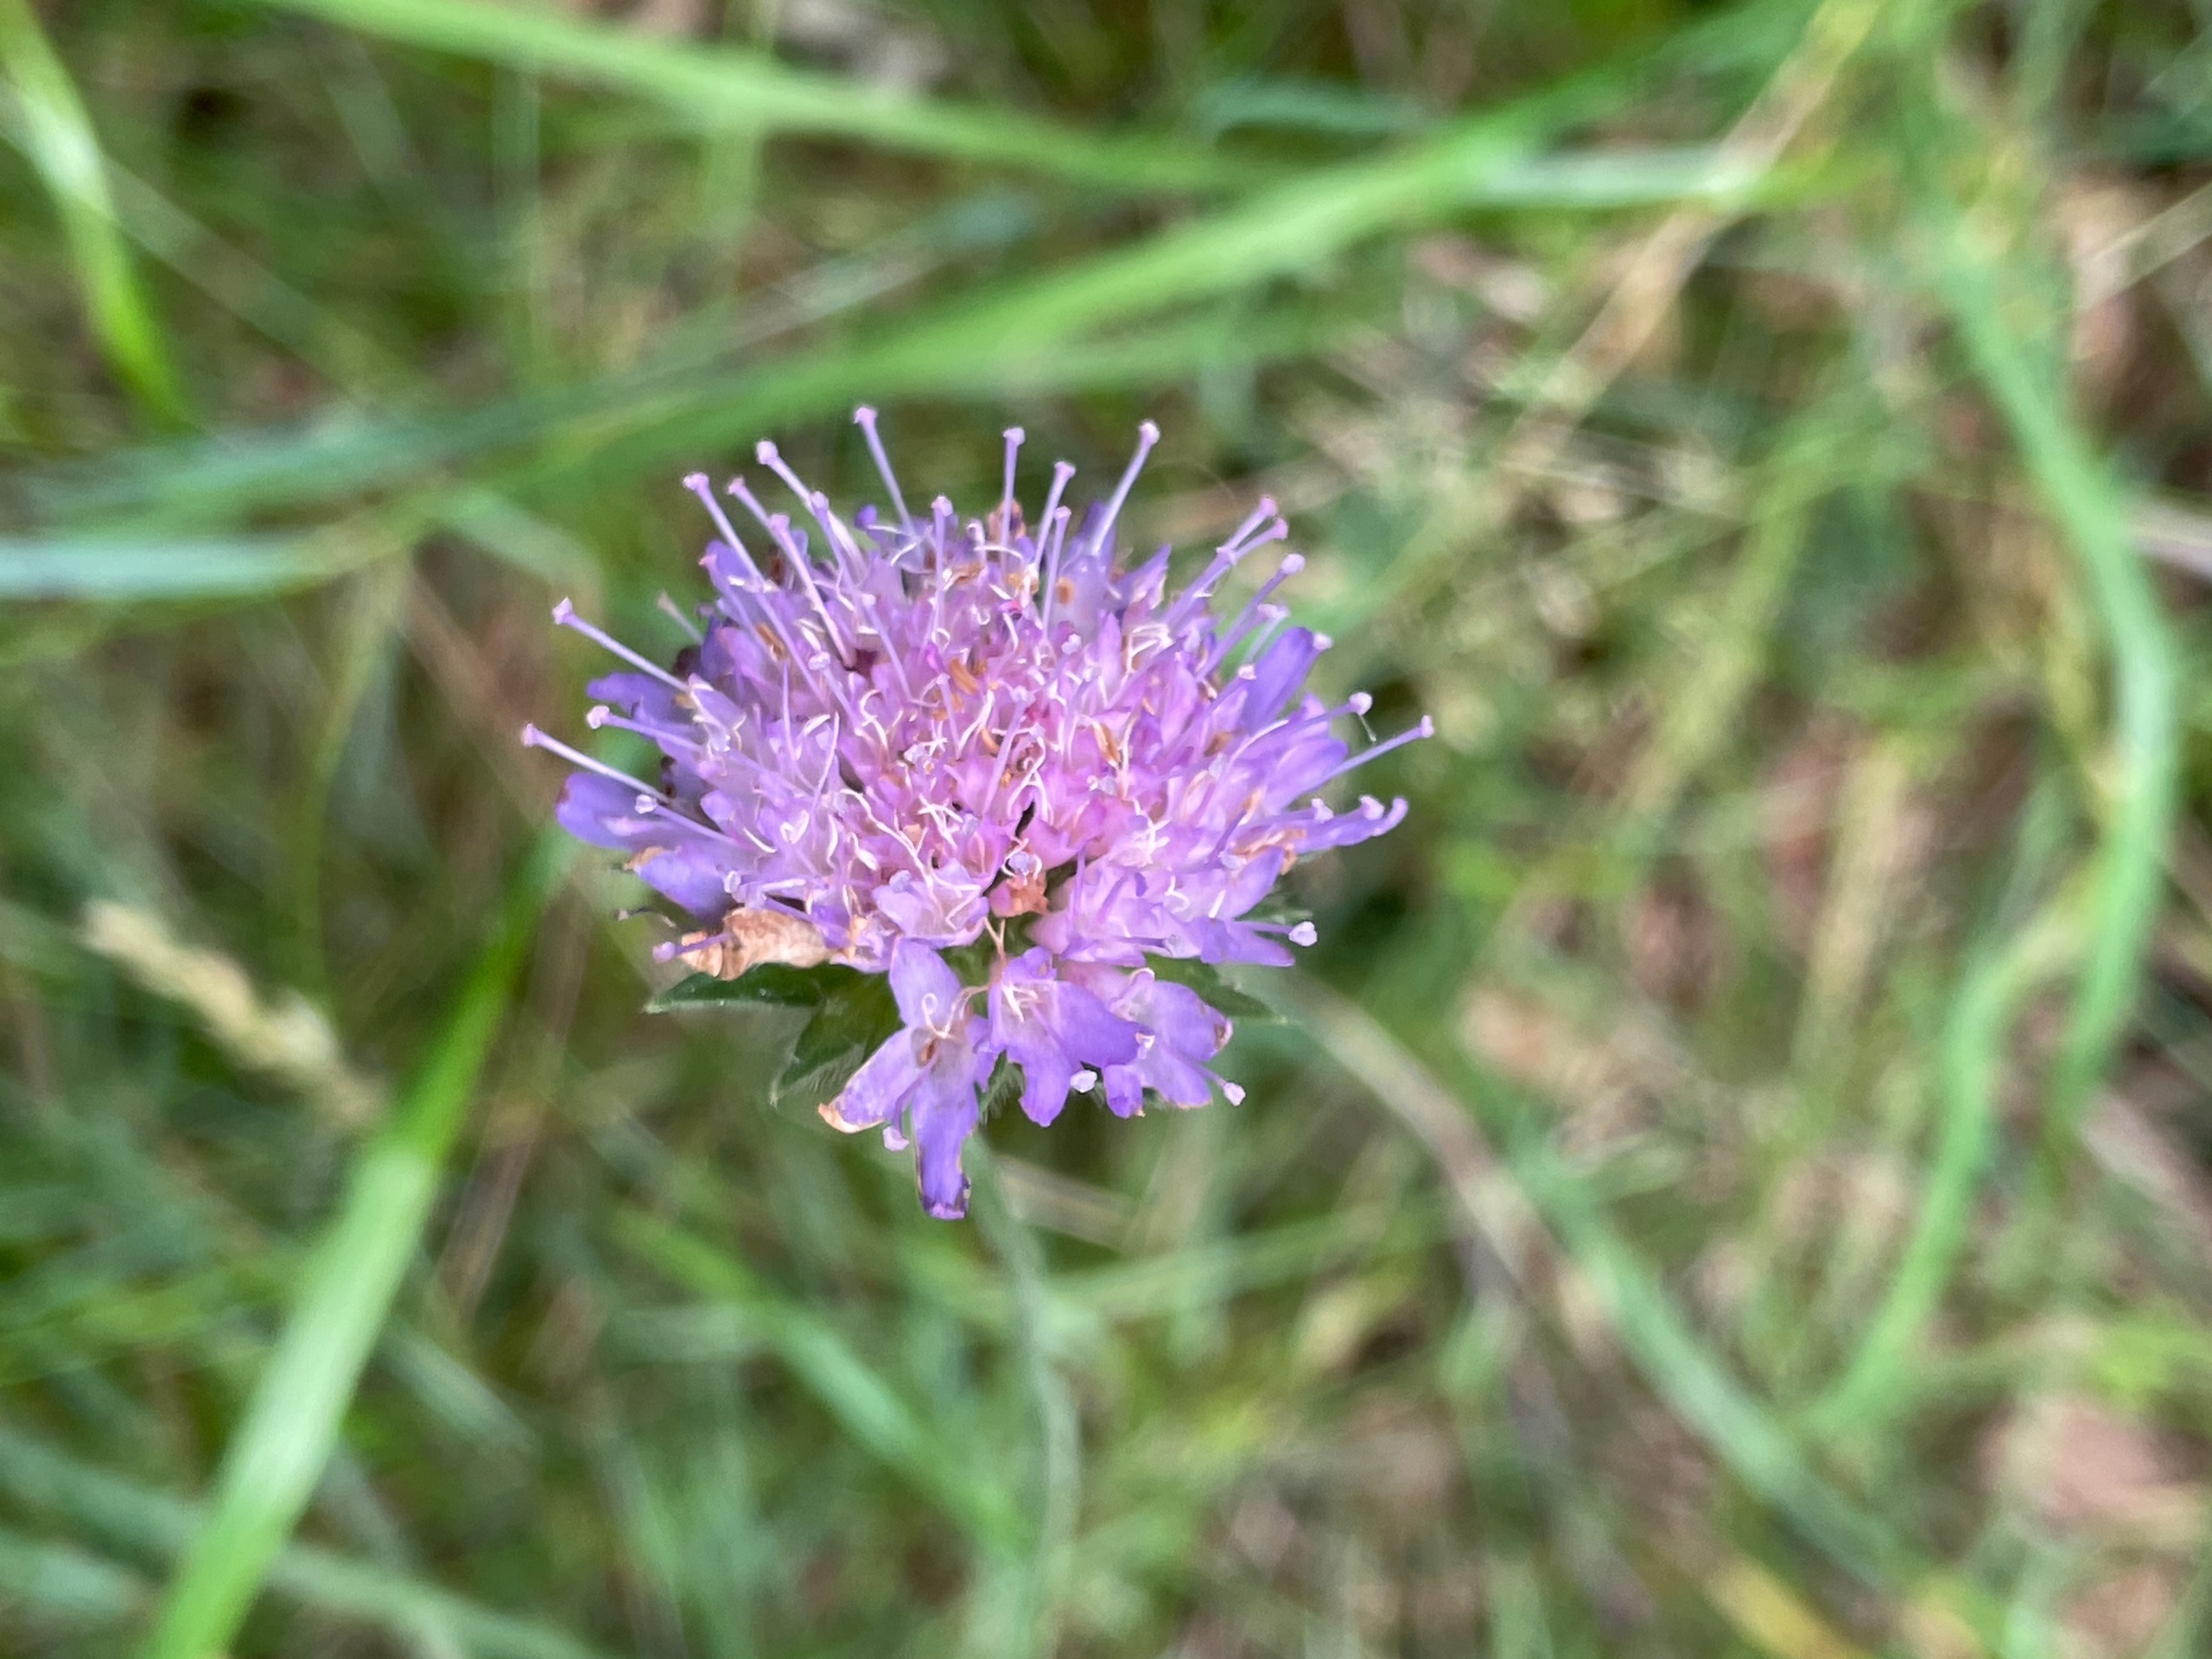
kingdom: Plantae
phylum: Tracheophyta
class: Magnoliopsida
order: Dipsacales
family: Caprifoliaceae
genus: Knautia
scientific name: Knautia arvensis
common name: Blåhat
